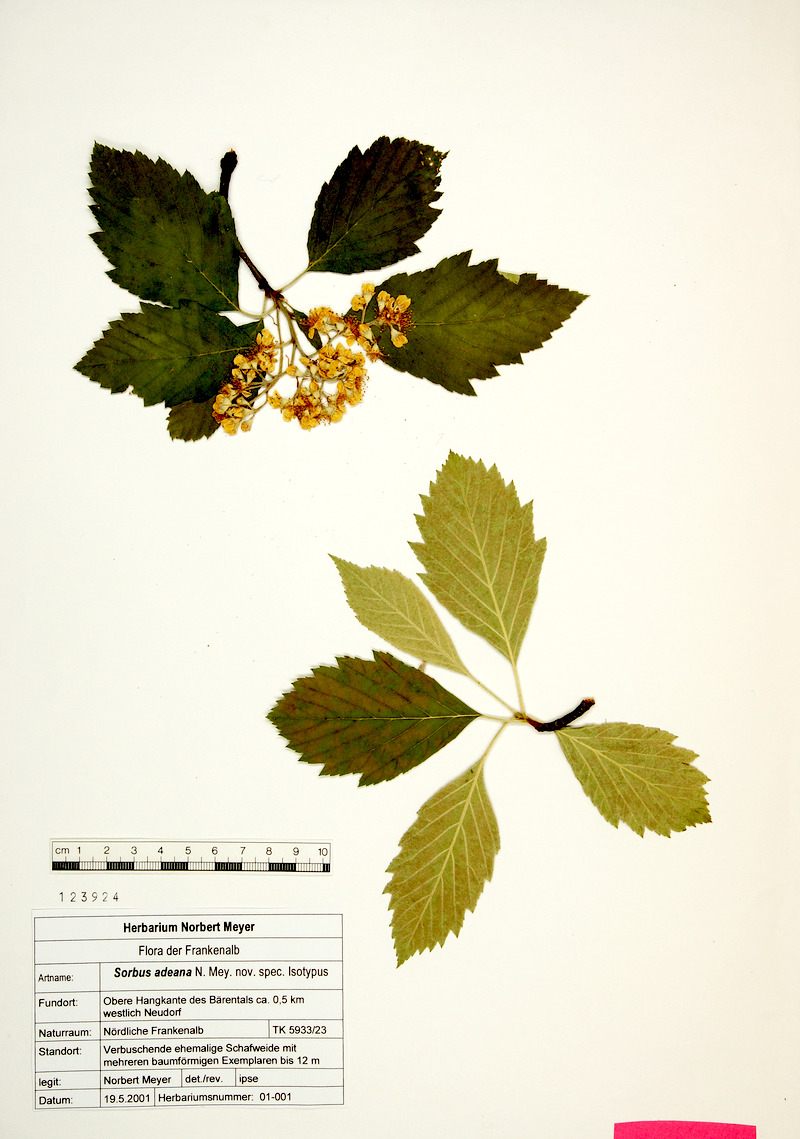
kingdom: Plantae
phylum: Tracheophyta
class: Magnoliopsida
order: Rosales
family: Rosaceae
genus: Karpatiosorbus
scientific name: Karpatiosorbus schnizleiniana
